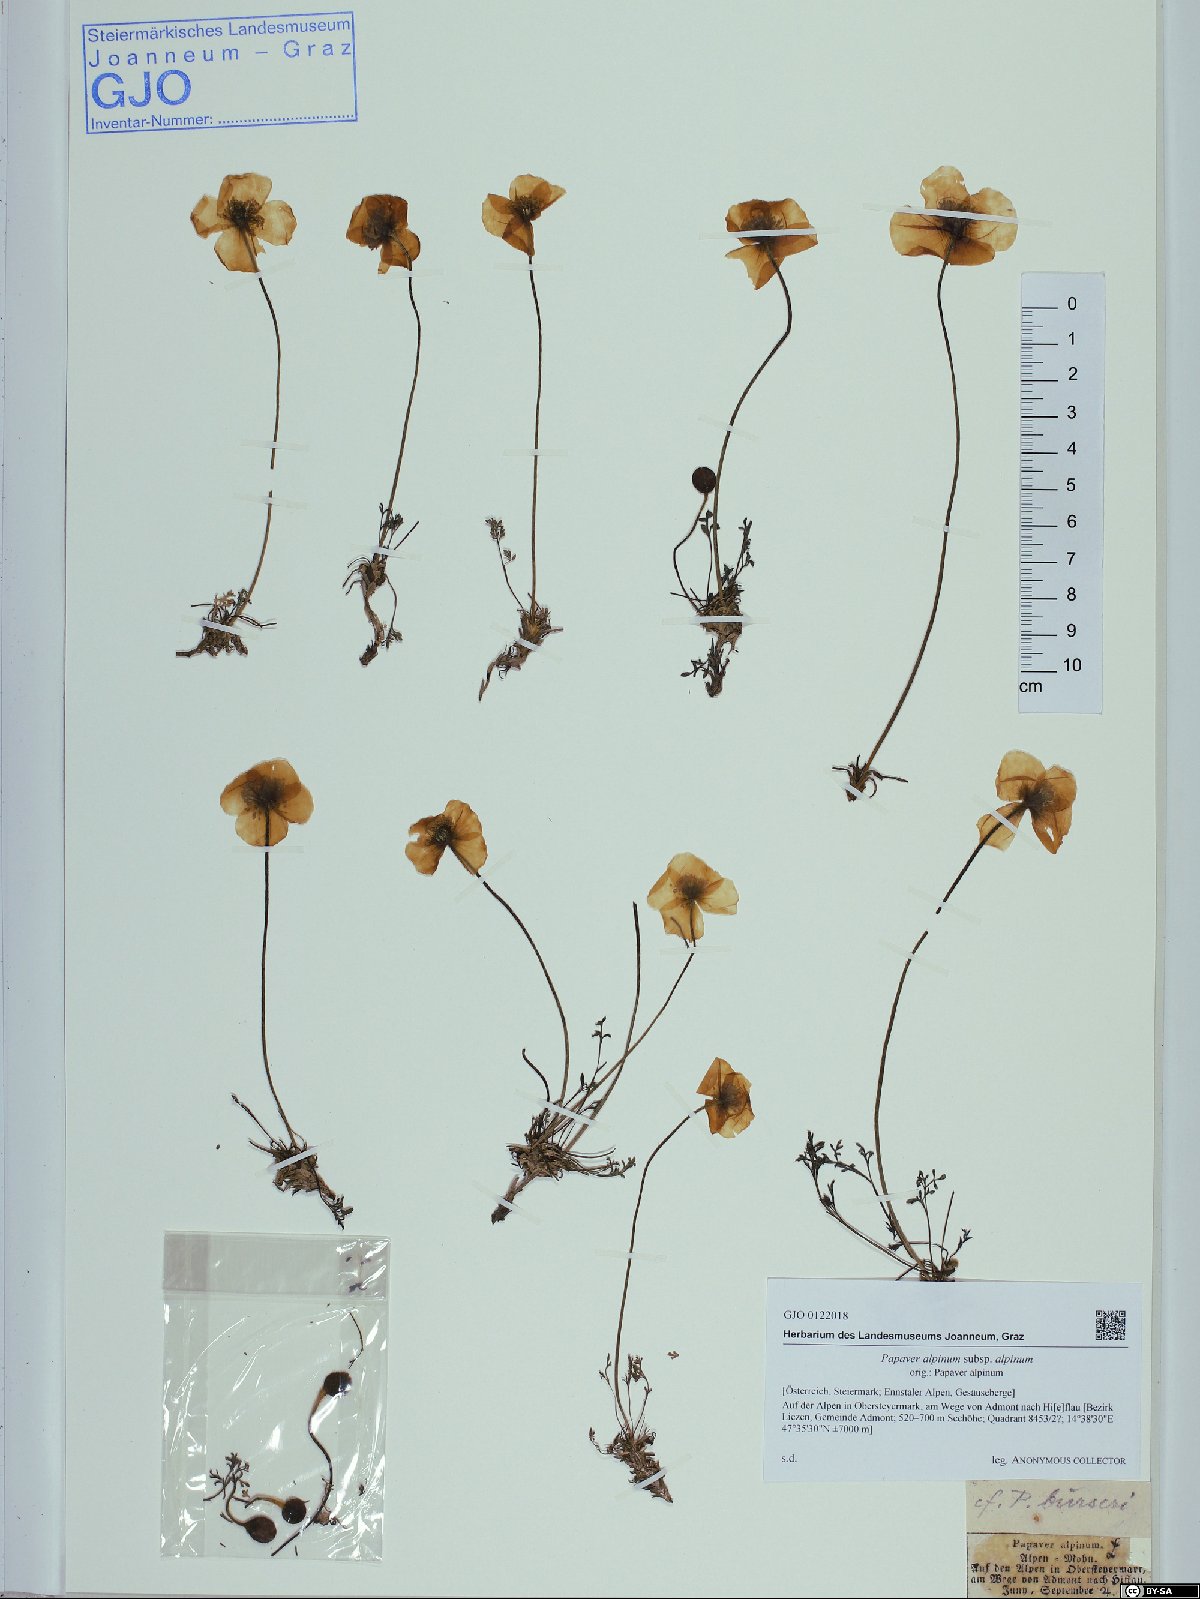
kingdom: Plantae
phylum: Tracheophyta
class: Magnoliopsida
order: Ranunculales
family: Papaveraceae
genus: Papaver
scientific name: Papaver alpinum
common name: Austrian poppy
